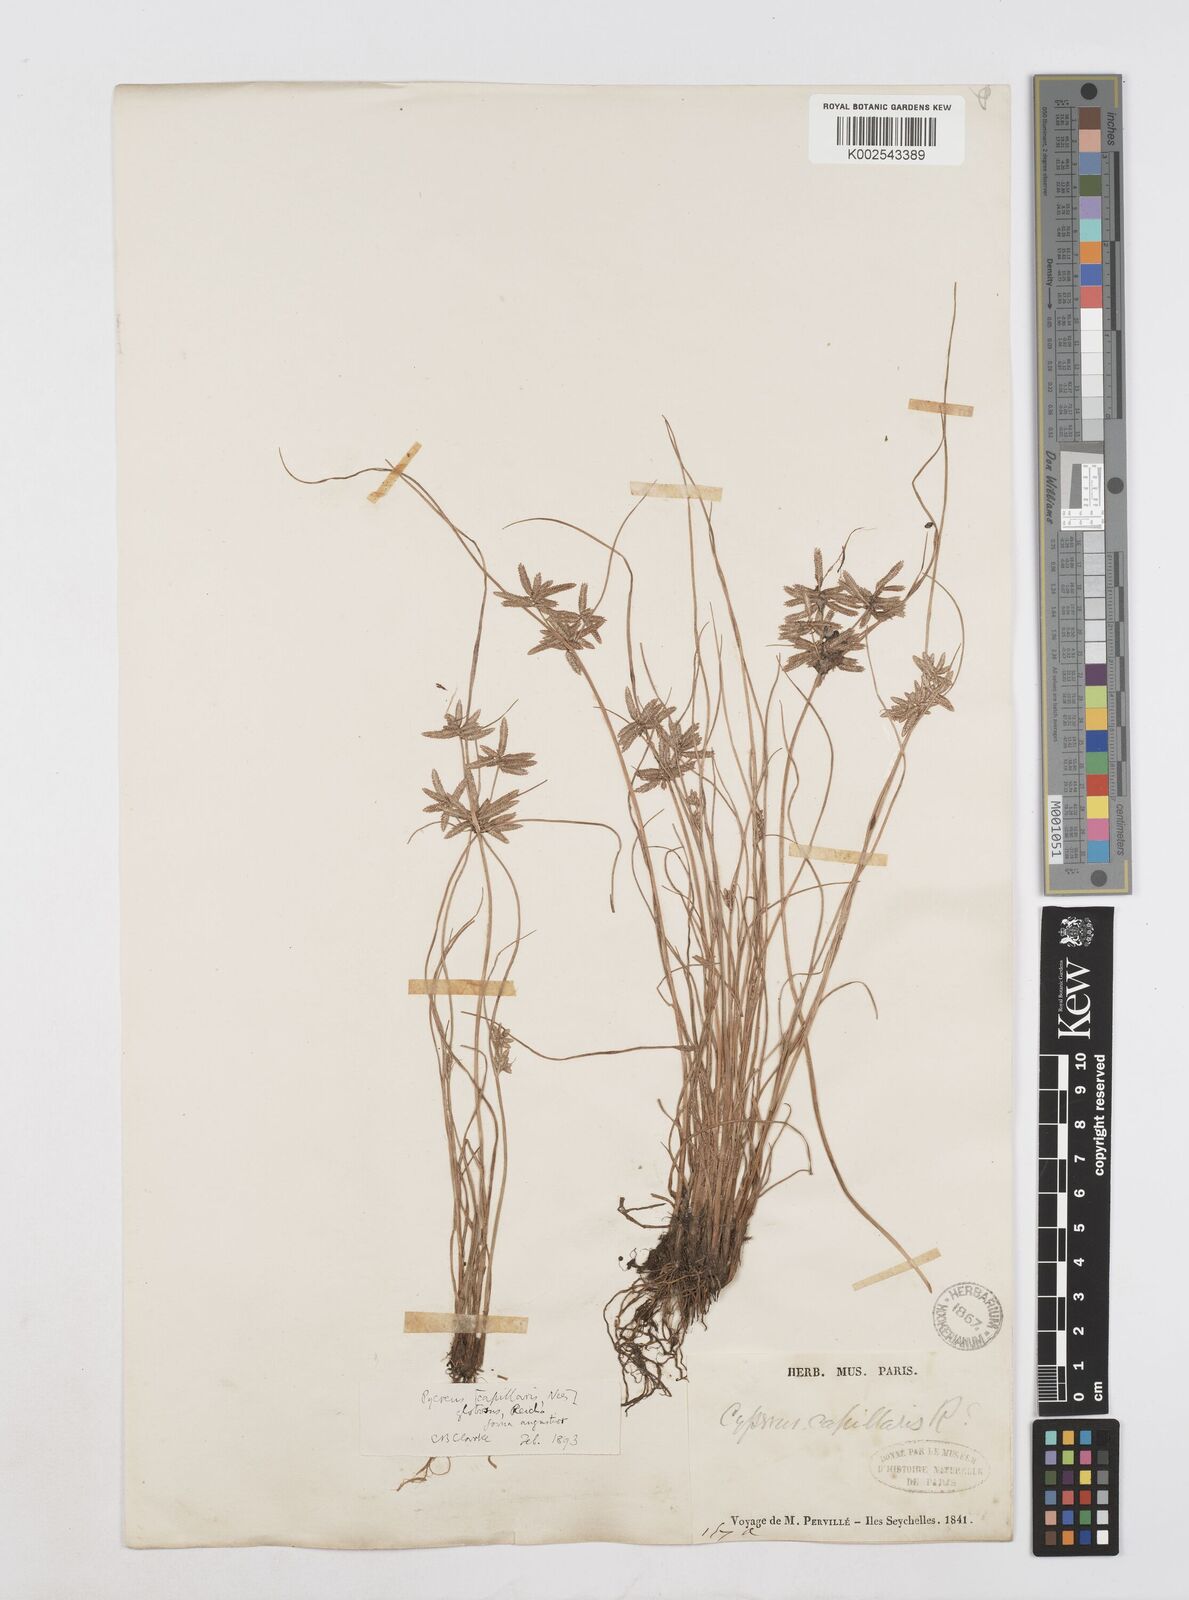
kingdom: Plantae
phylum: Tracheophyta
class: Liliopsida
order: Poales
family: Cyperaceae
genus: Cyperus
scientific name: Cyperus flavidus
